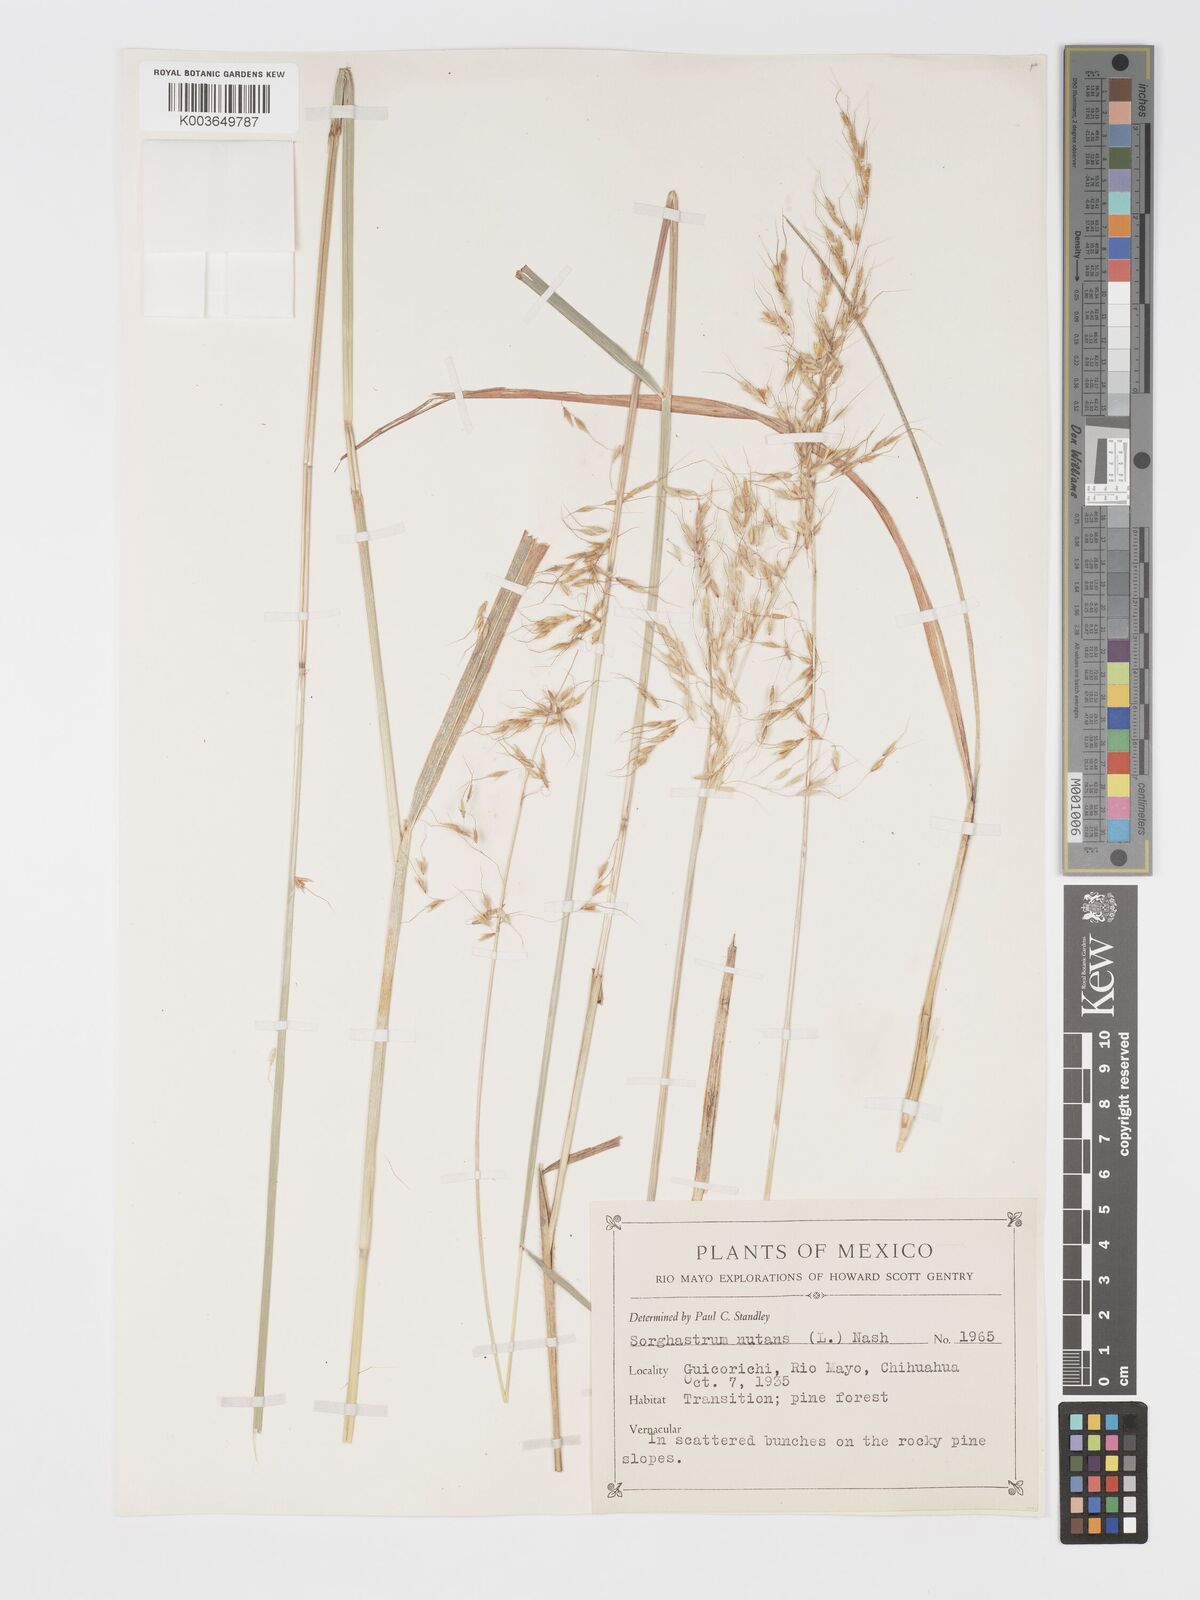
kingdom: Plantae
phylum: Tracheophyta
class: Liliopsida
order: Poales
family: Poaceae
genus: Sorghastrum
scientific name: Sorghastrum nutans
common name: Indian grass
